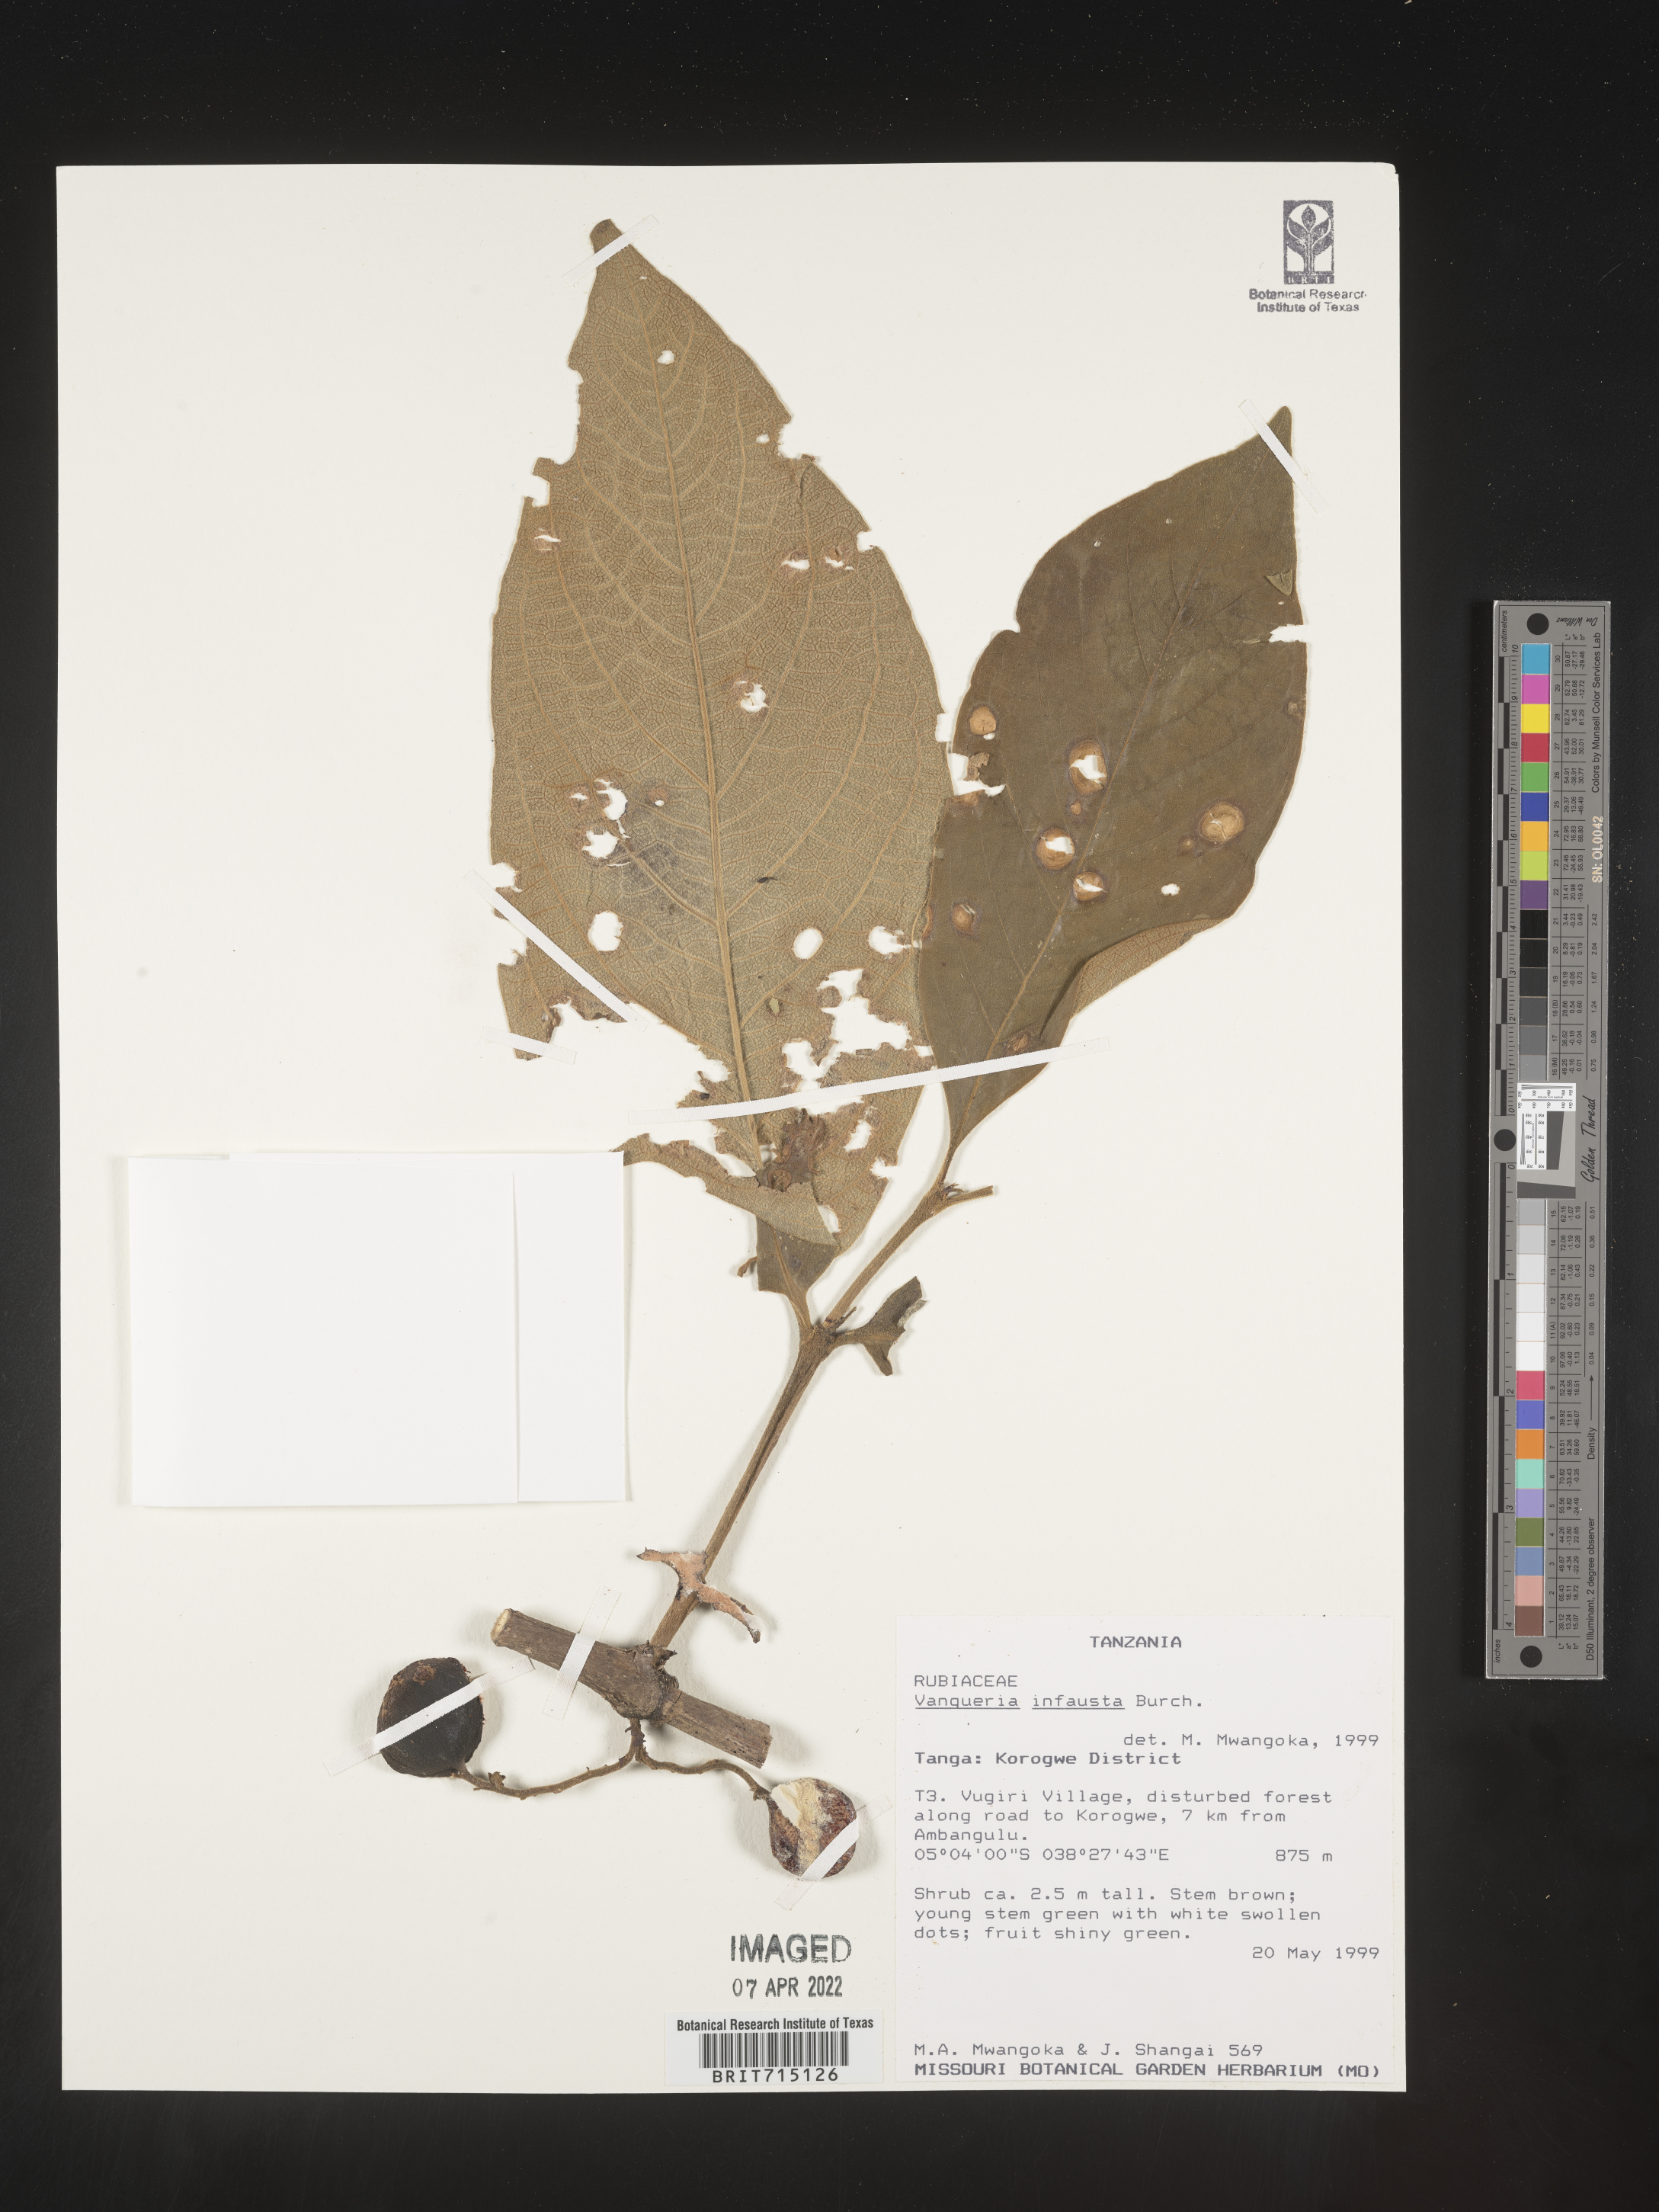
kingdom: Plantae
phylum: Tracheophyta
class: Magnoliopsida
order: Gentianales
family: Rubiaceae
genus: Vangueria
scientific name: Vangueria
